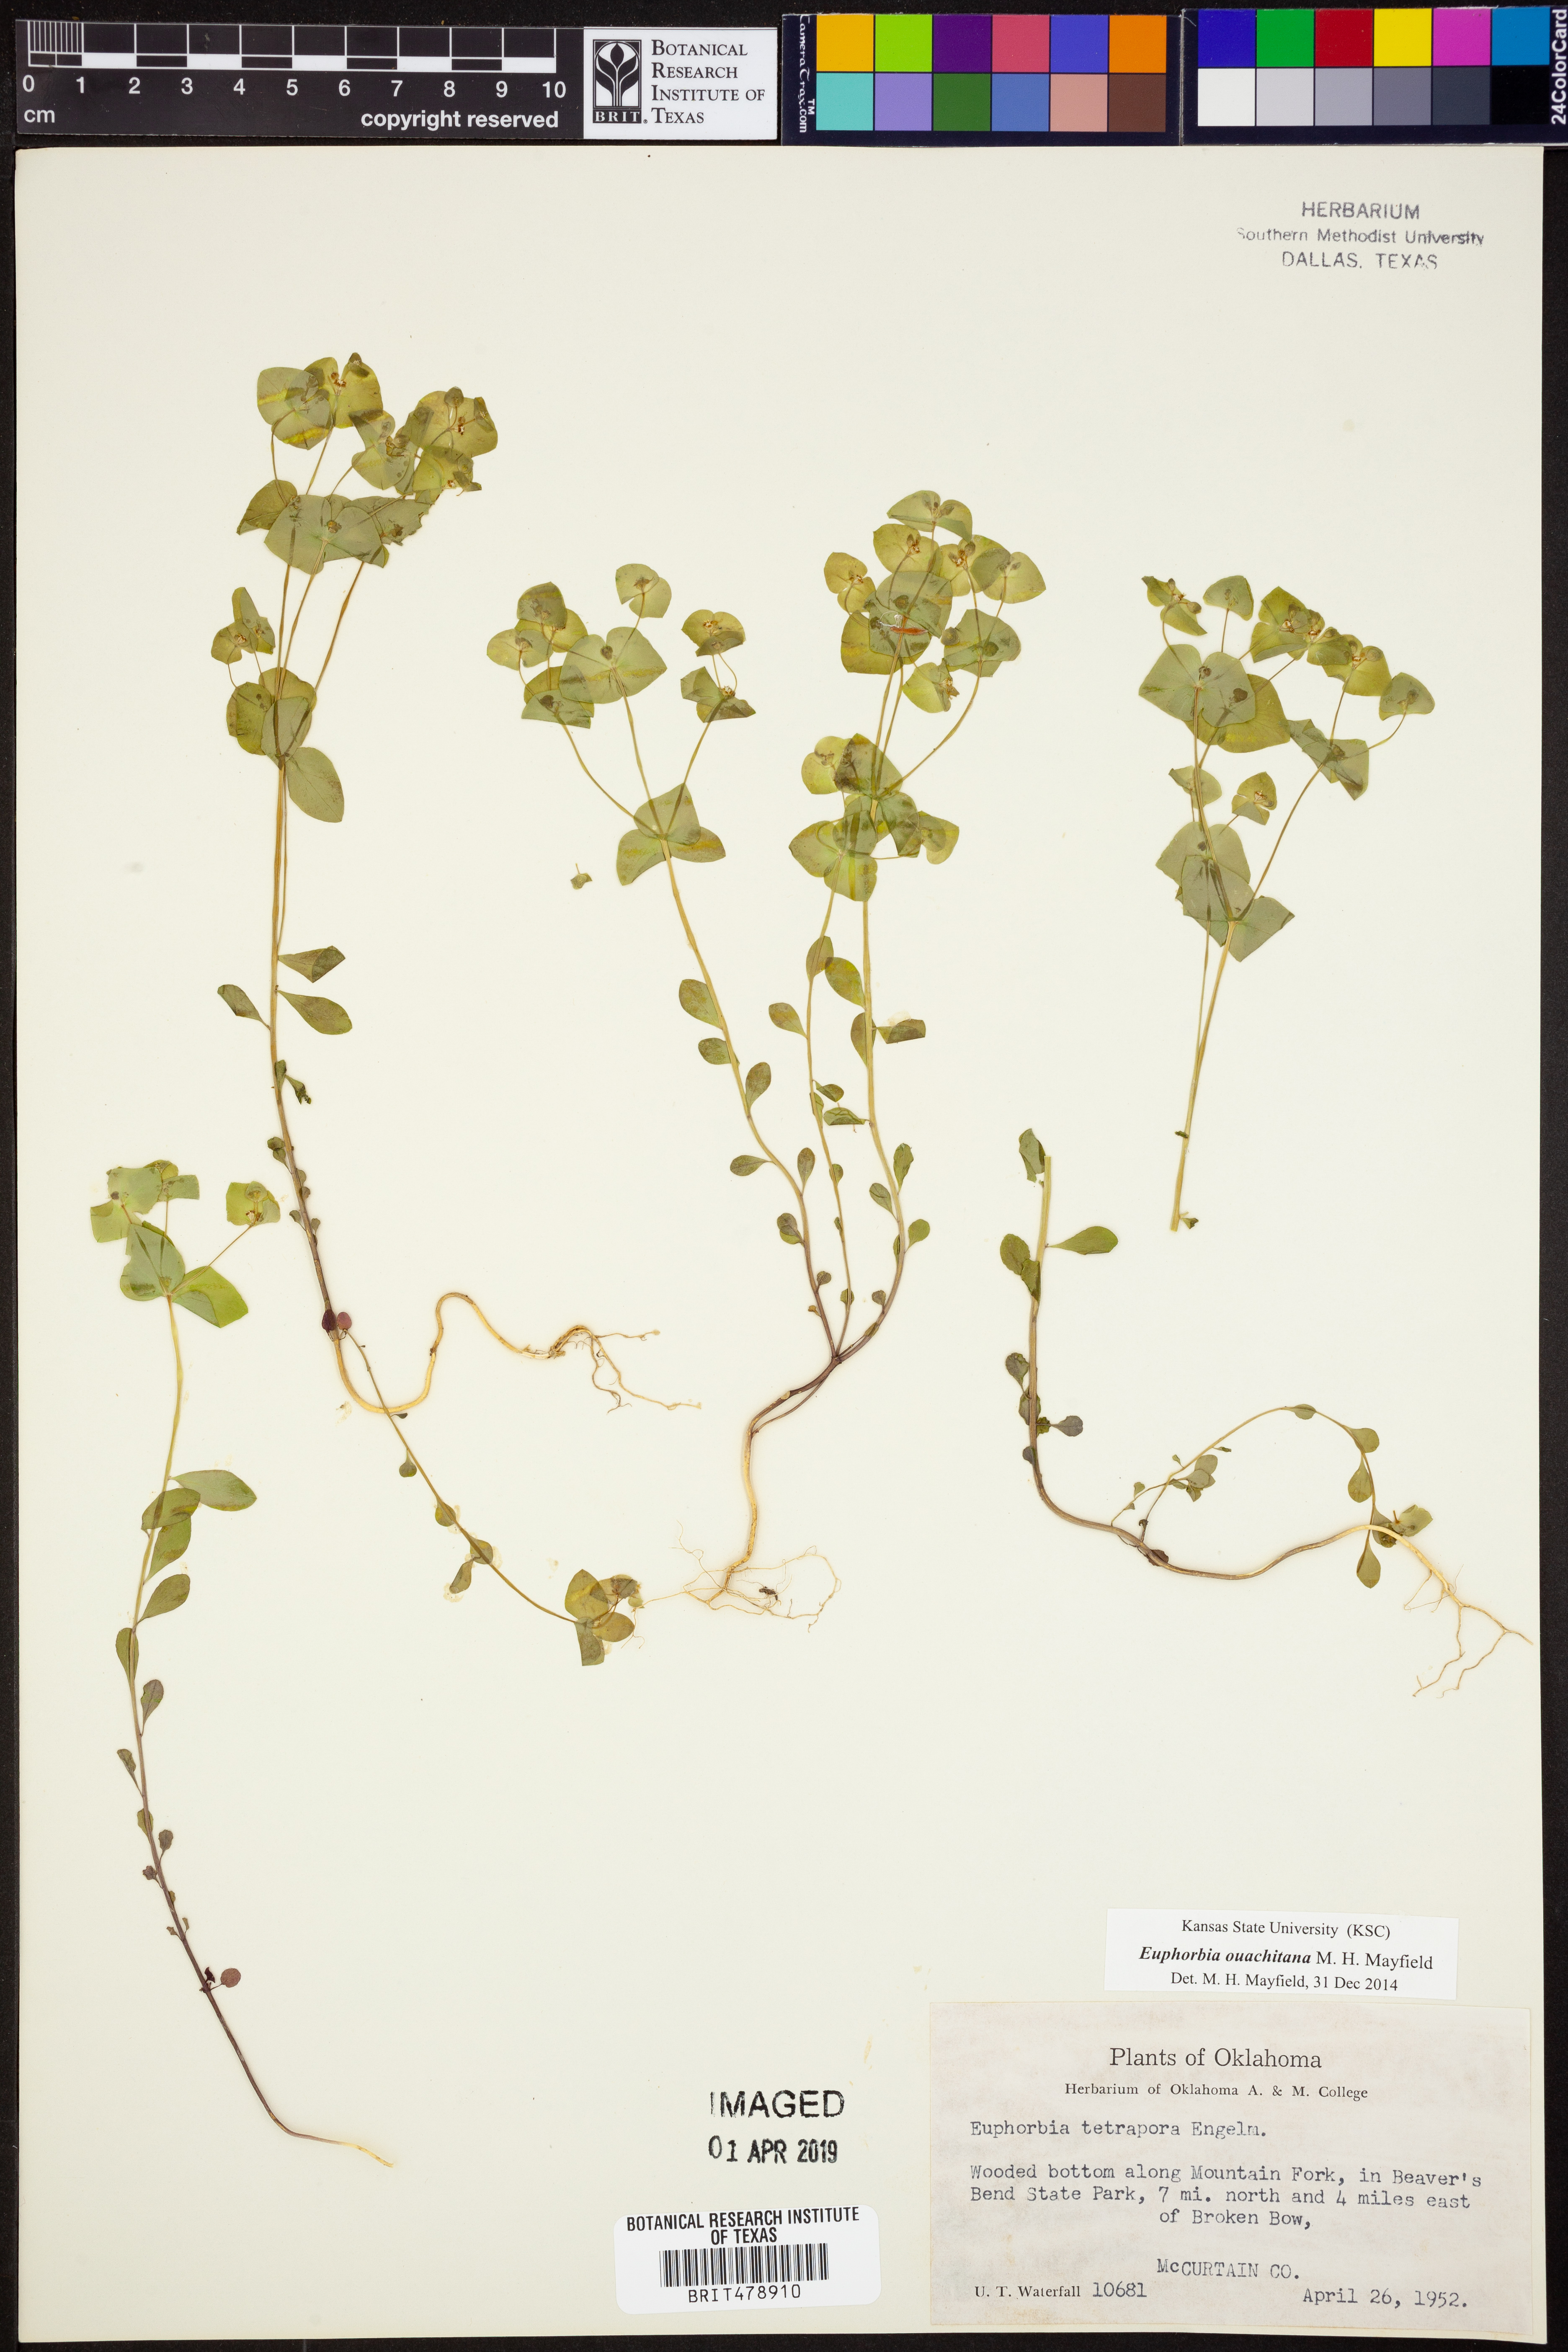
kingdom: Plantae
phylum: Tracheophyta
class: Magnoliopsida
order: Malpighiales
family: Euphorbiaceae
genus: Euphorbia
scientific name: Euphorbia ouachitana
